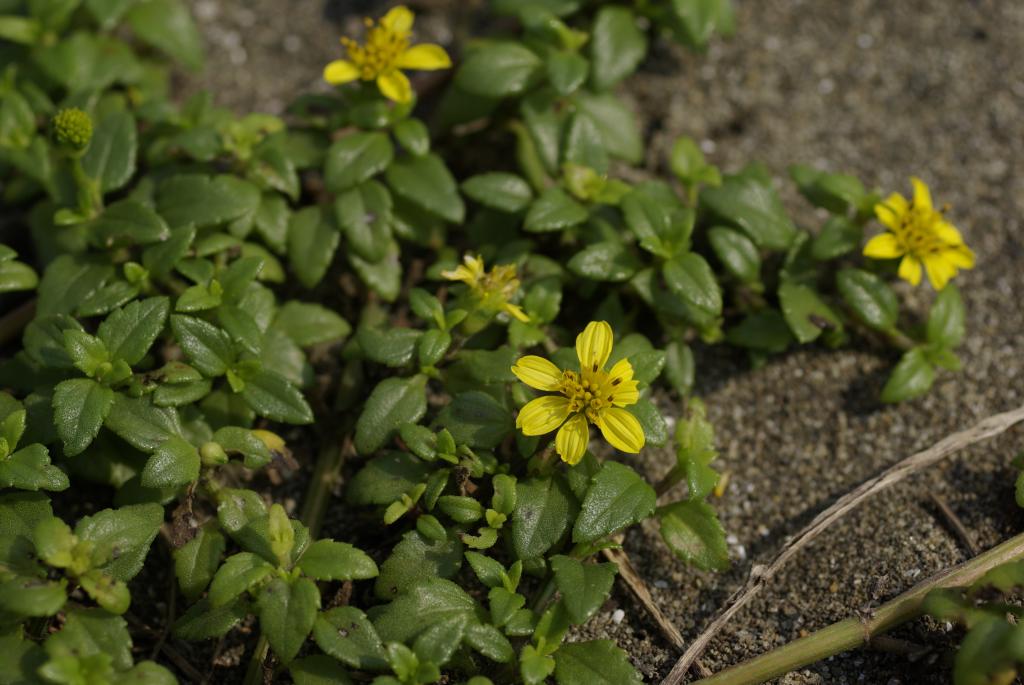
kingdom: Plantae
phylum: Tracheophyta
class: Magnoliopsida
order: Asterales
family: Asteraceae
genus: Melanthera
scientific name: Melanthera prostrata
